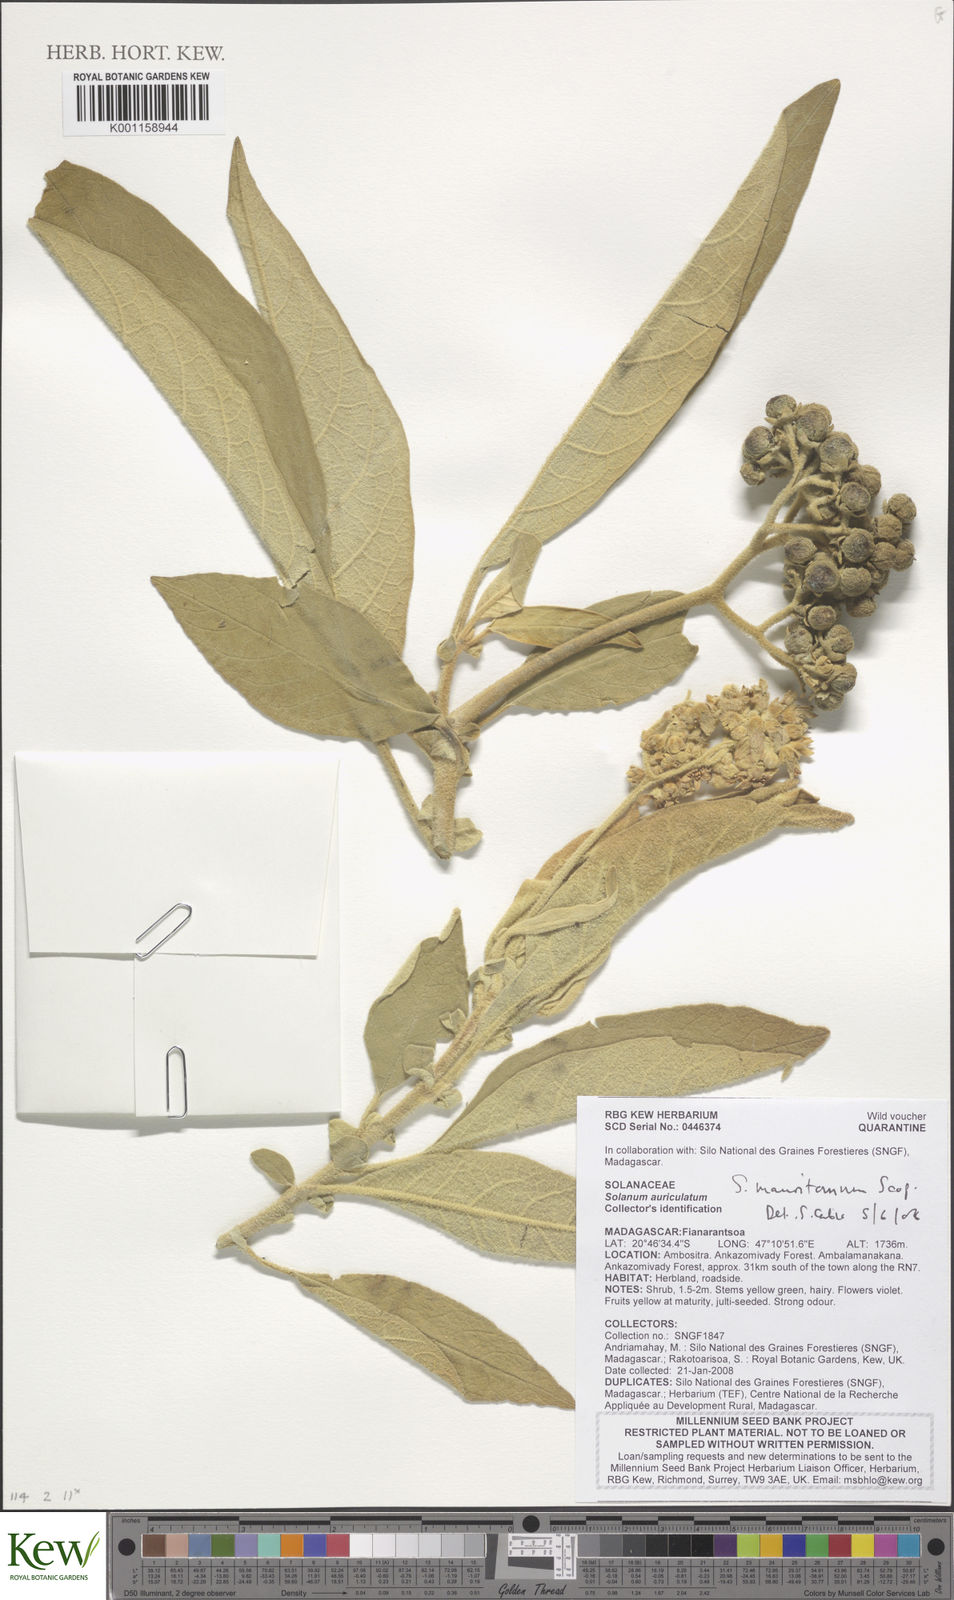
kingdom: Plantae
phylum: Tracheophyta
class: Magnoliopsida
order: Solanales
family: Solanaceae
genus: Solanum
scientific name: Solanum mauritianum
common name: Earleaf nightshade
